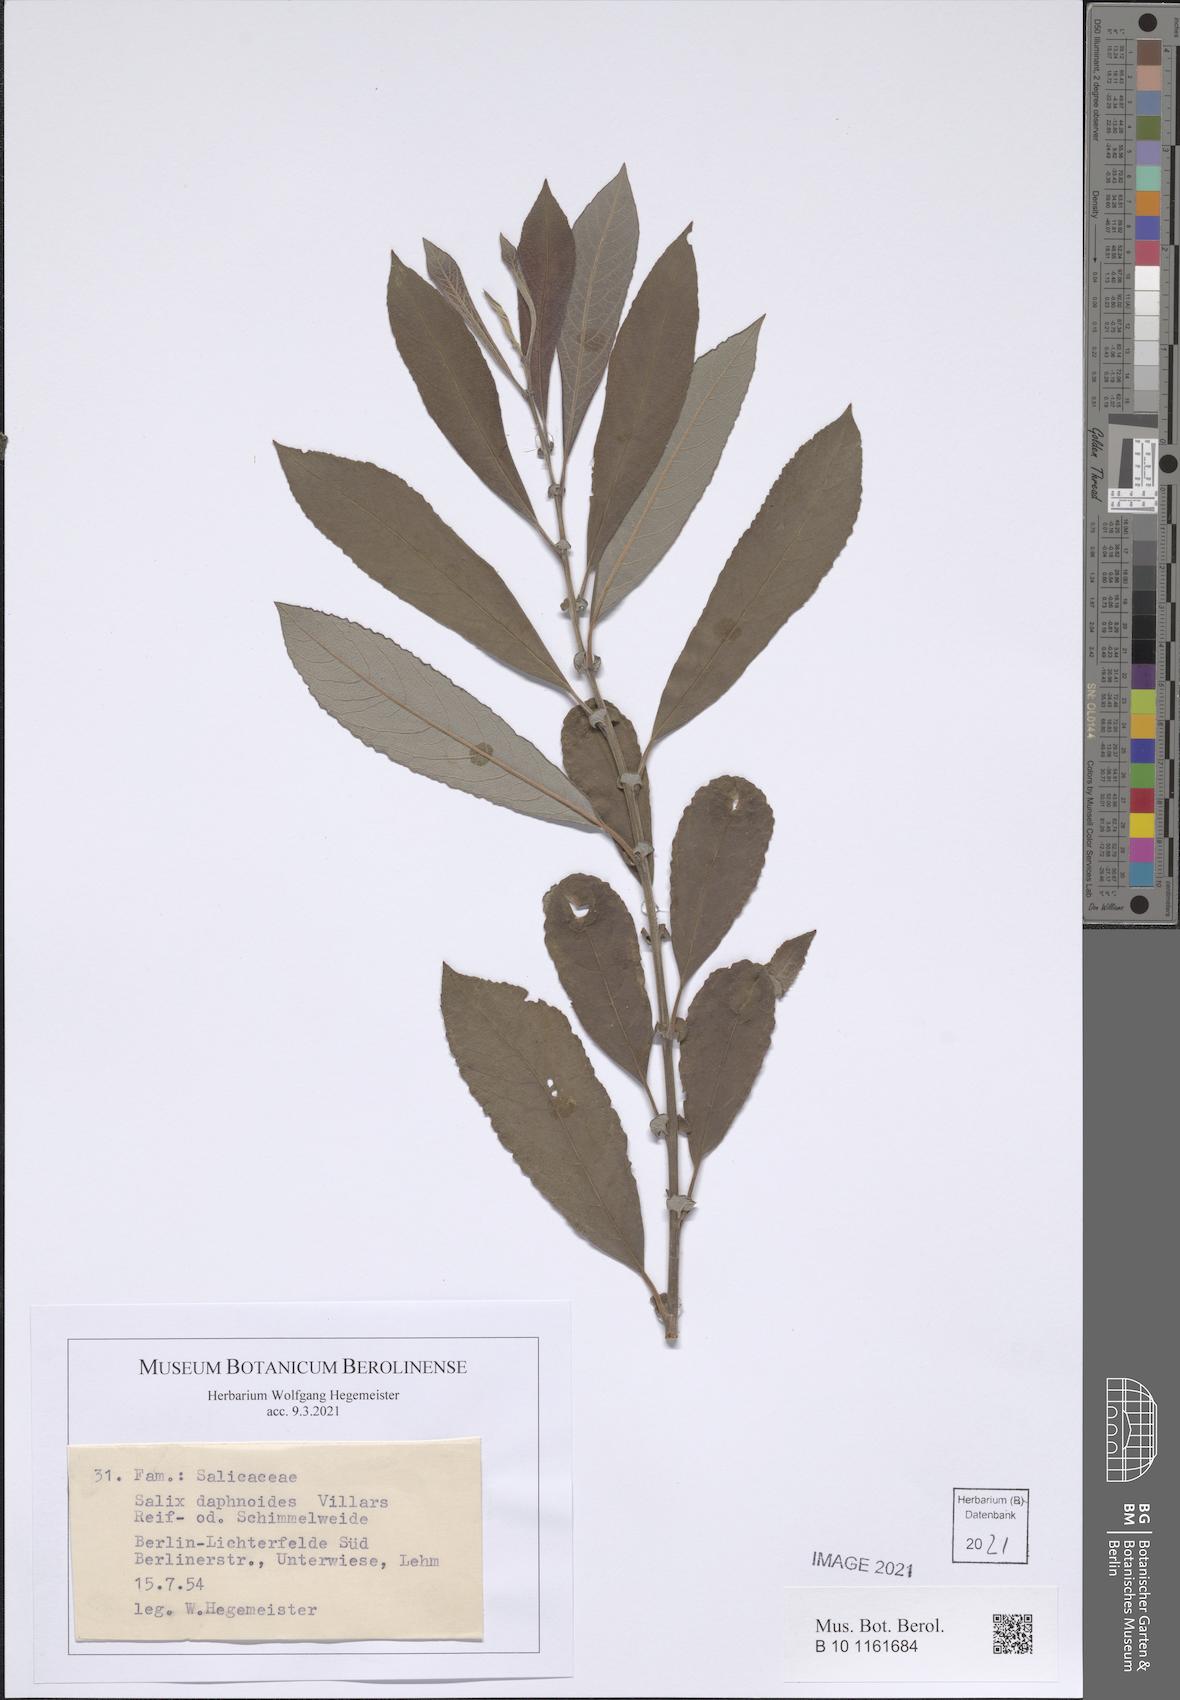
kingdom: Plantae
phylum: Tracheophyta
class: Magnoliopsida
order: Malpighiales
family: Salicaceae
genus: Salix
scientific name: Salix daphnoides
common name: European violet-willow
